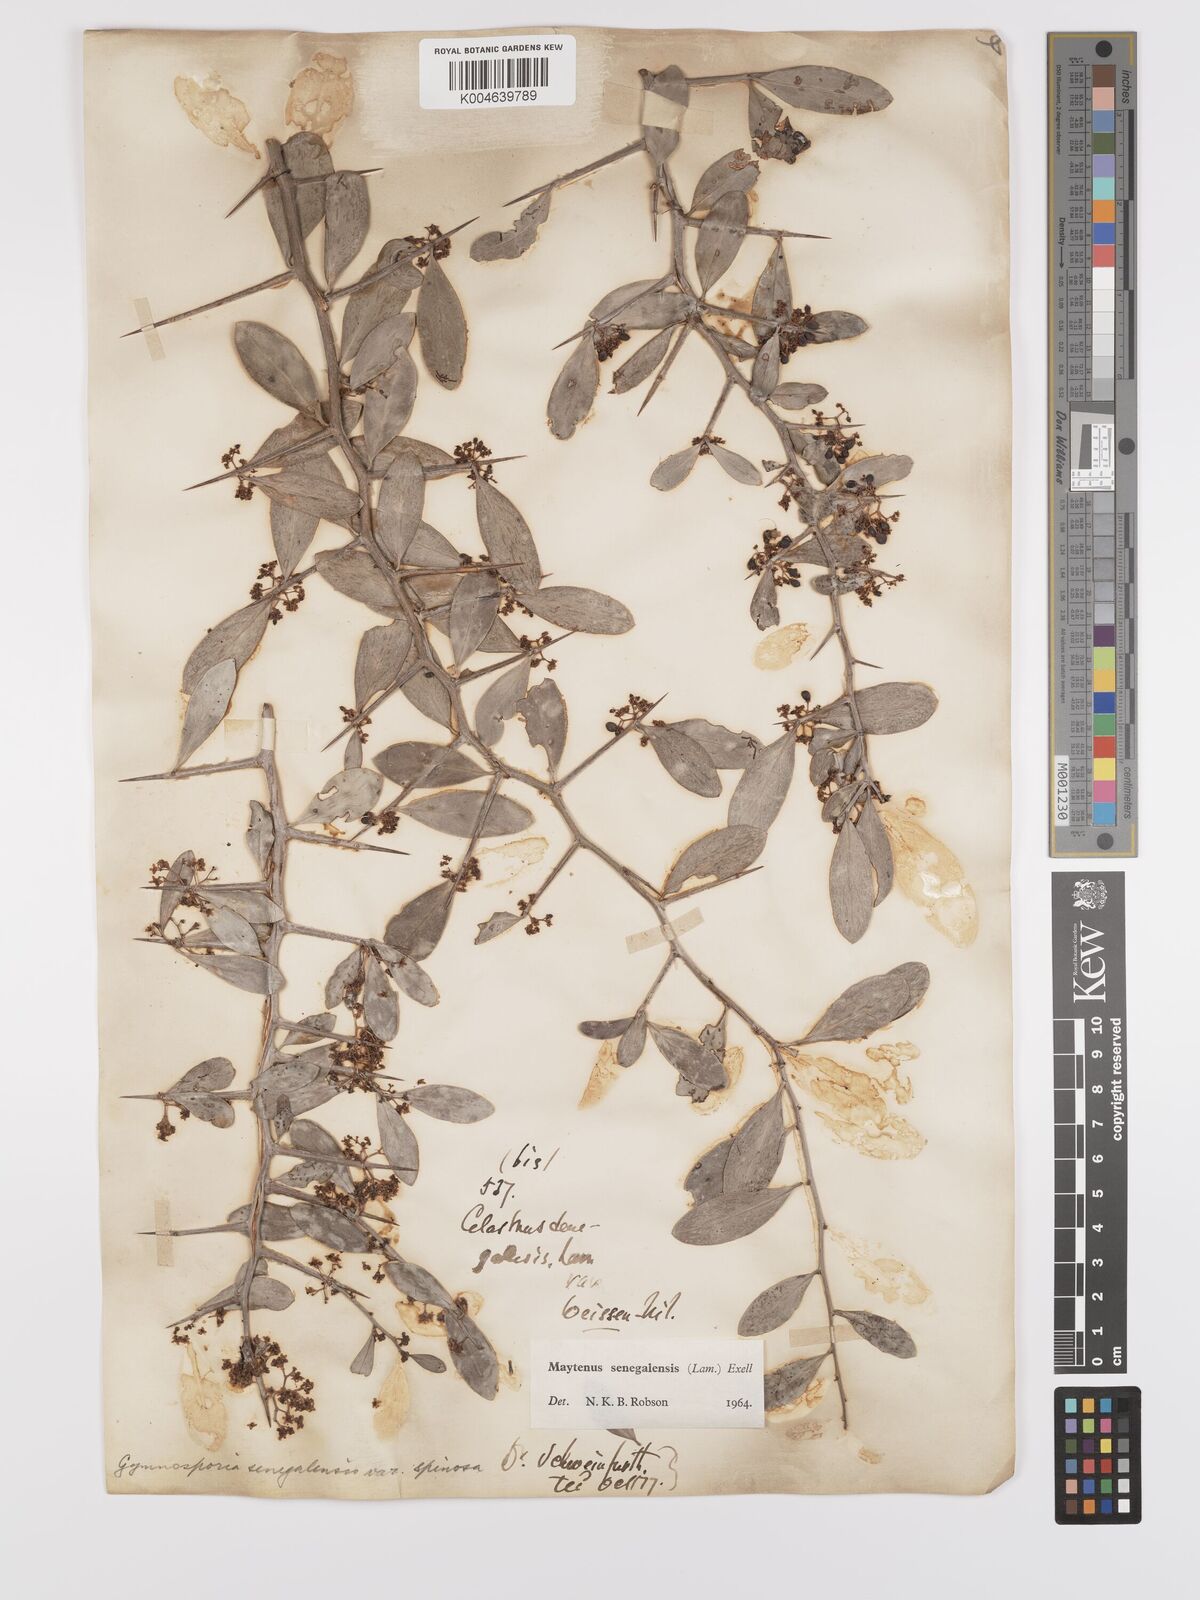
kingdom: Plantae
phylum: Tracheophyta
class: Magnoliopsida
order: Celastrales
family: Celastraceae
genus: Gymnosporia
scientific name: Gymnosporia senegalensis
